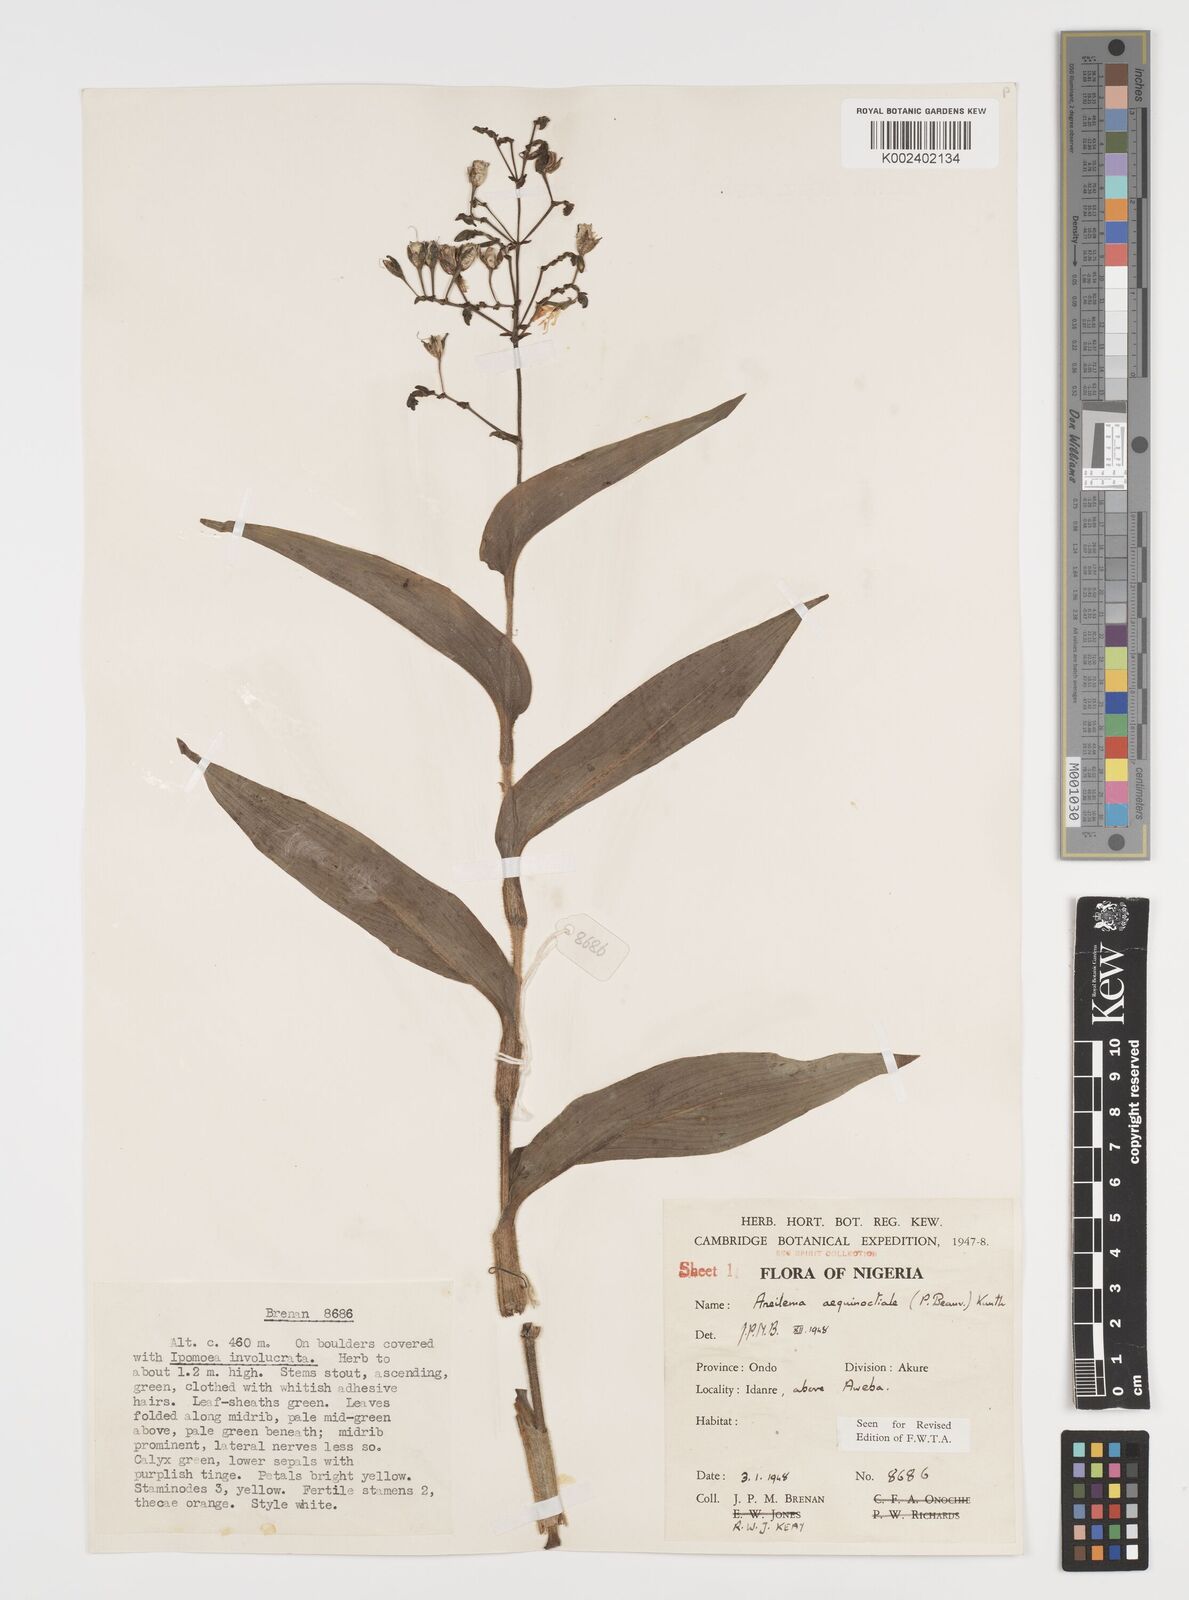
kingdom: Plantae
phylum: Tracheophyta
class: Liliopsida
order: Commelinales
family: Commelinaceae
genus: Aneilema
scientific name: Aneilema aequinoctiale
